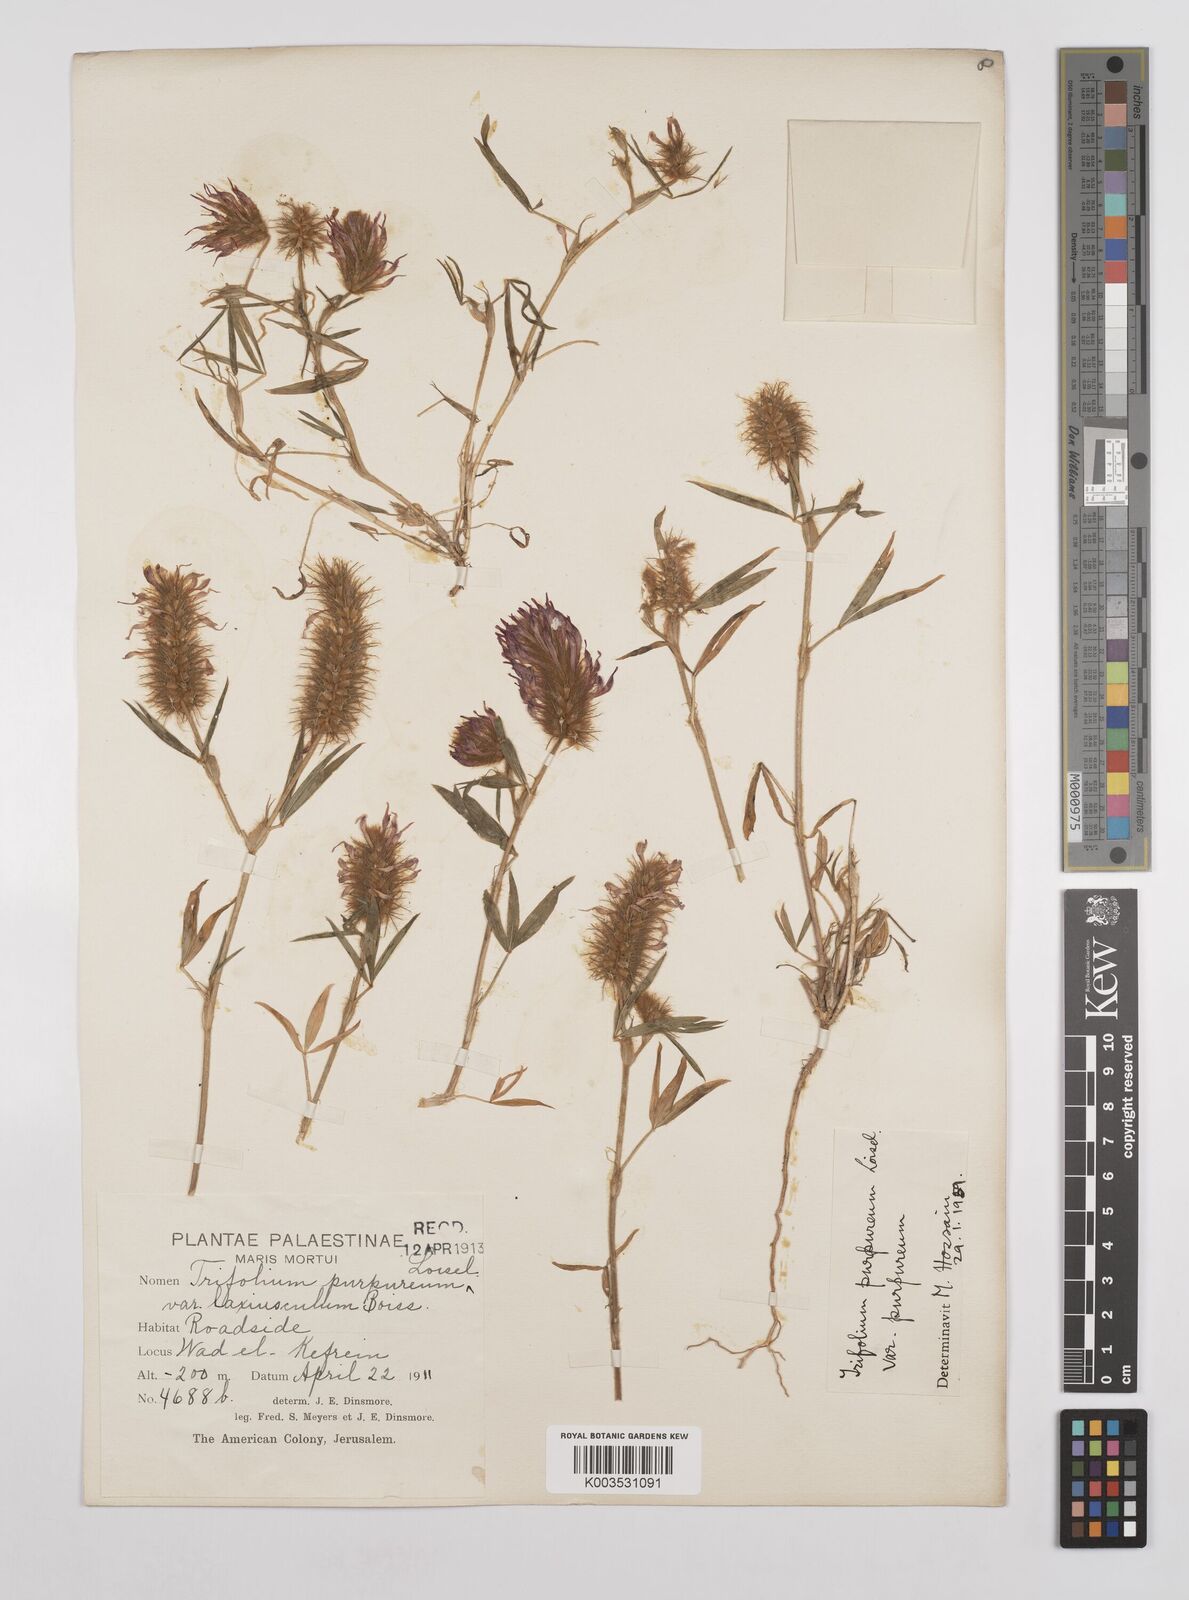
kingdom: Plantae
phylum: Tracheophyta
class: Magnoliopsida
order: Fabales
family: Fabaceae
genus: Trifolium
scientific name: Trifolium purpureum
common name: Purple clover
